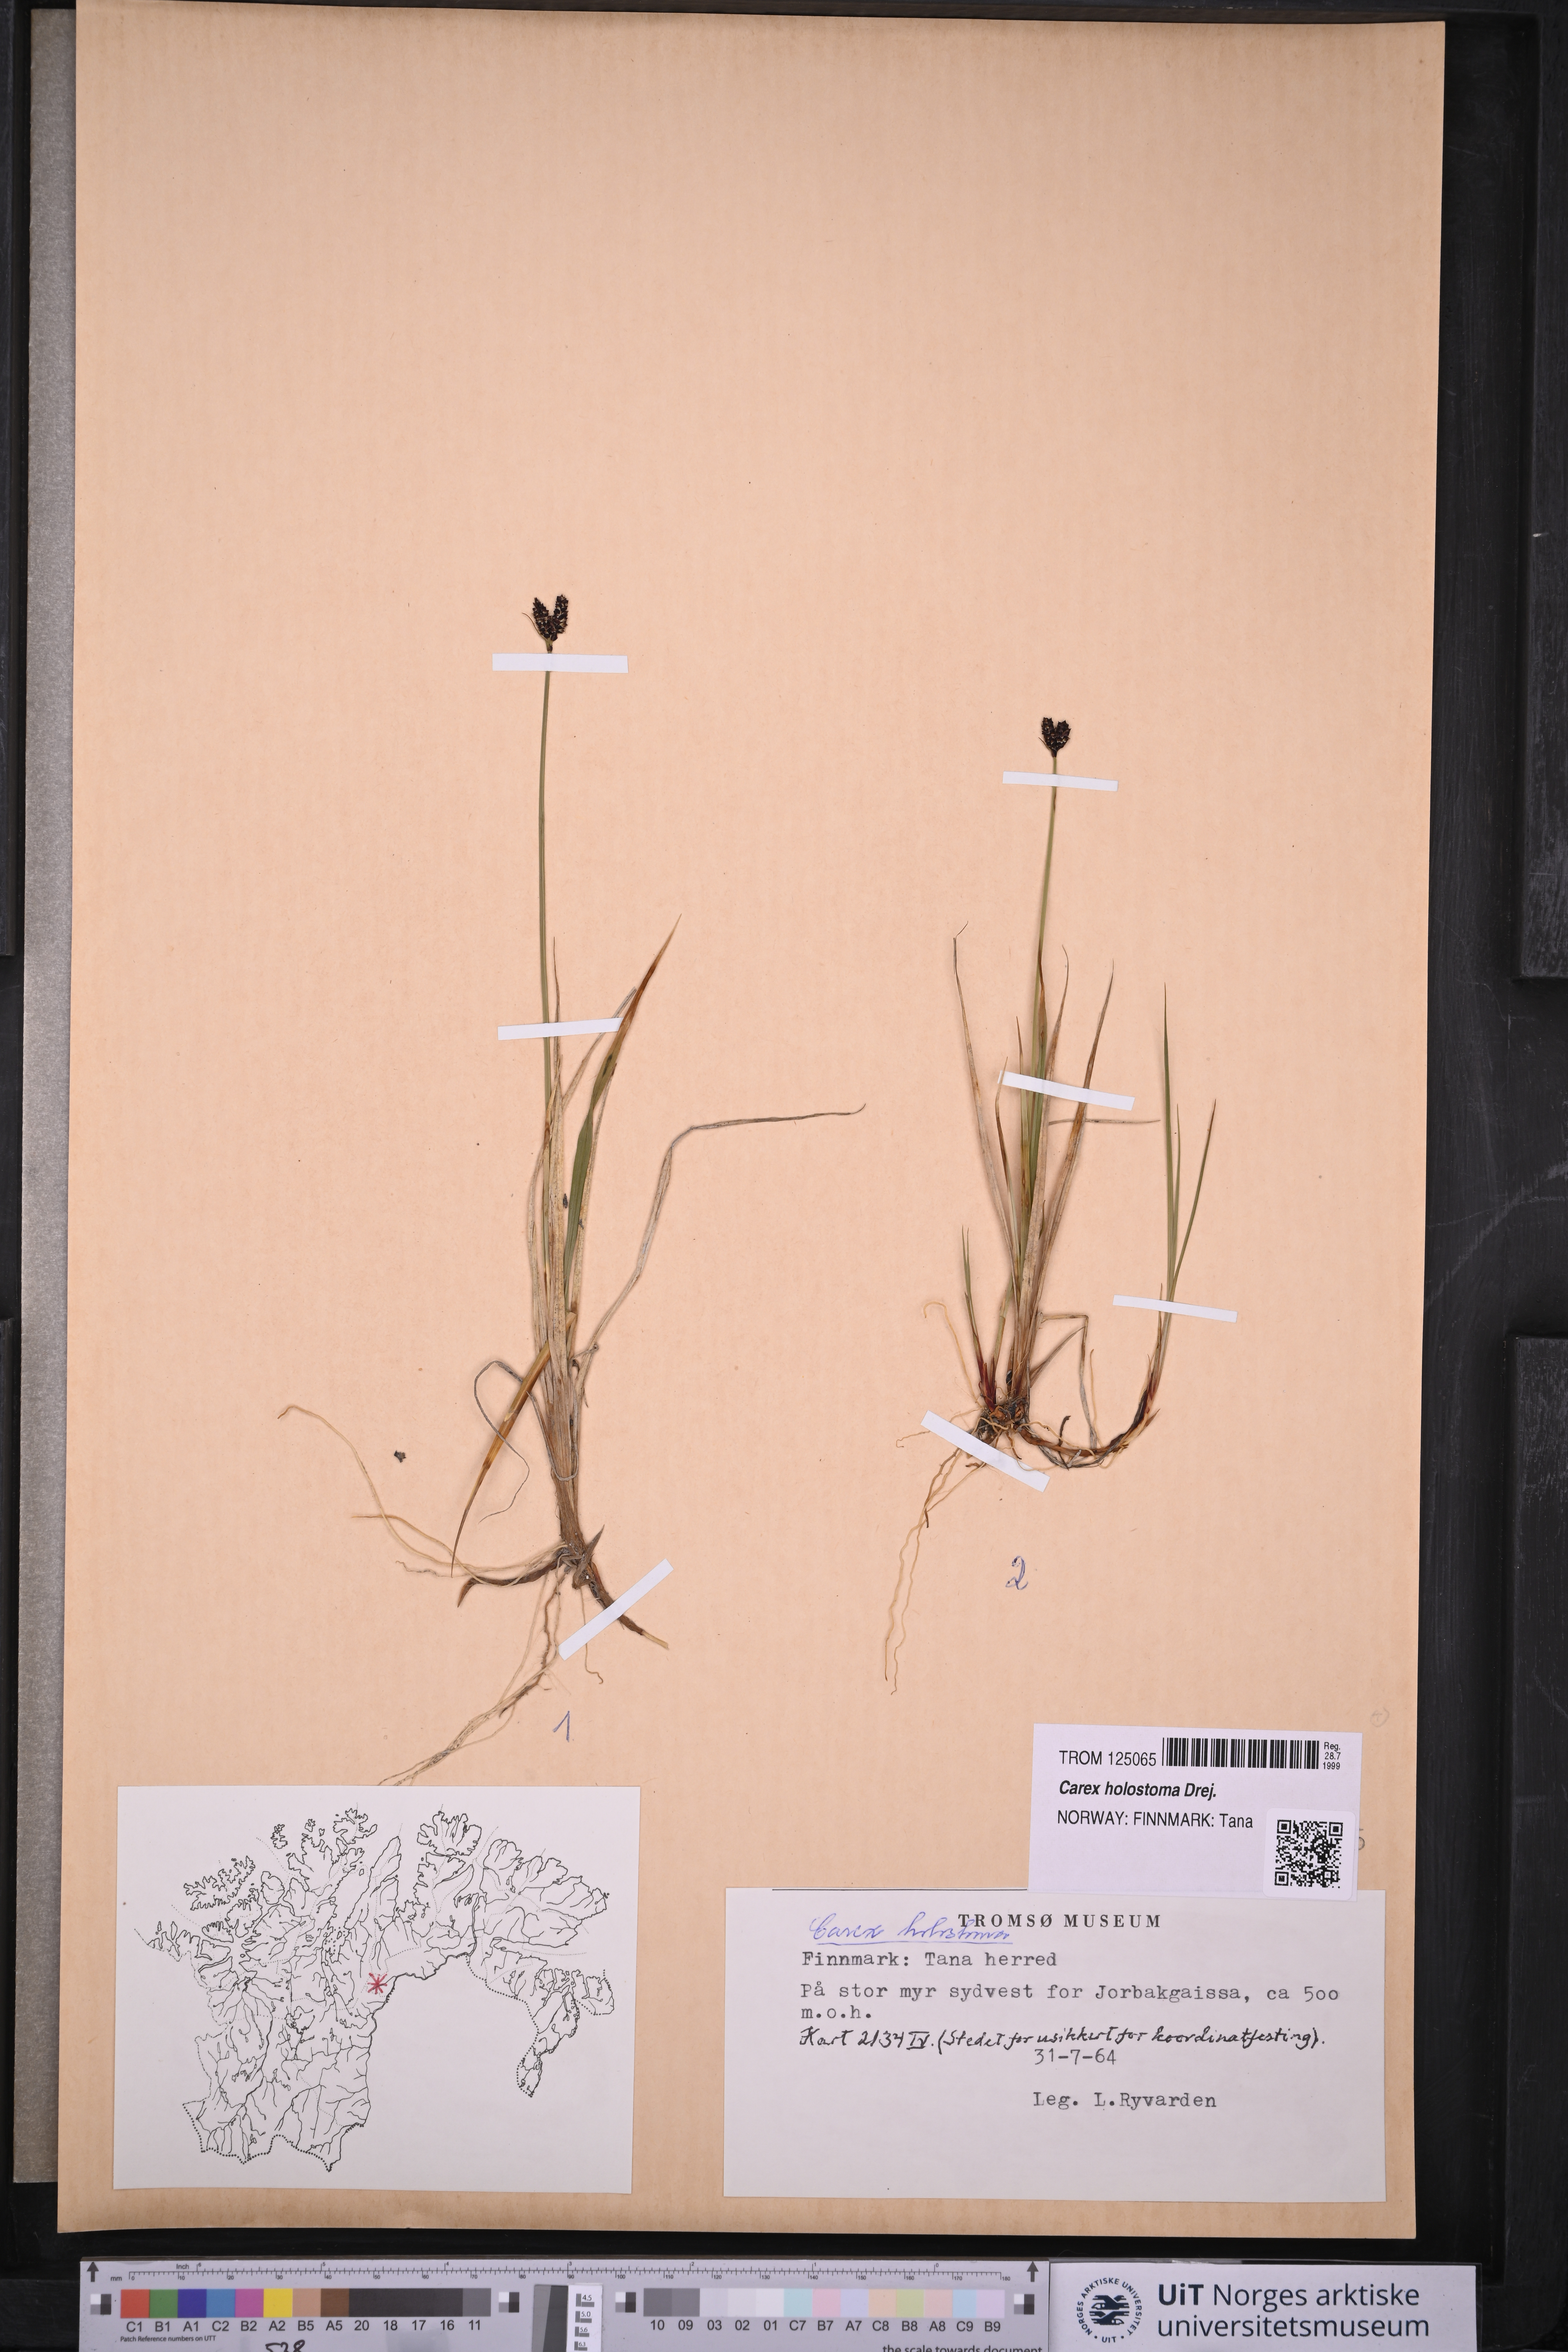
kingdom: Plantae
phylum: Tracheophyta
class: Liliopsida
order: Poales
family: Cyperaceae
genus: Carex
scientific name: Carex holostoma
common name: Arctic marsh sedge
